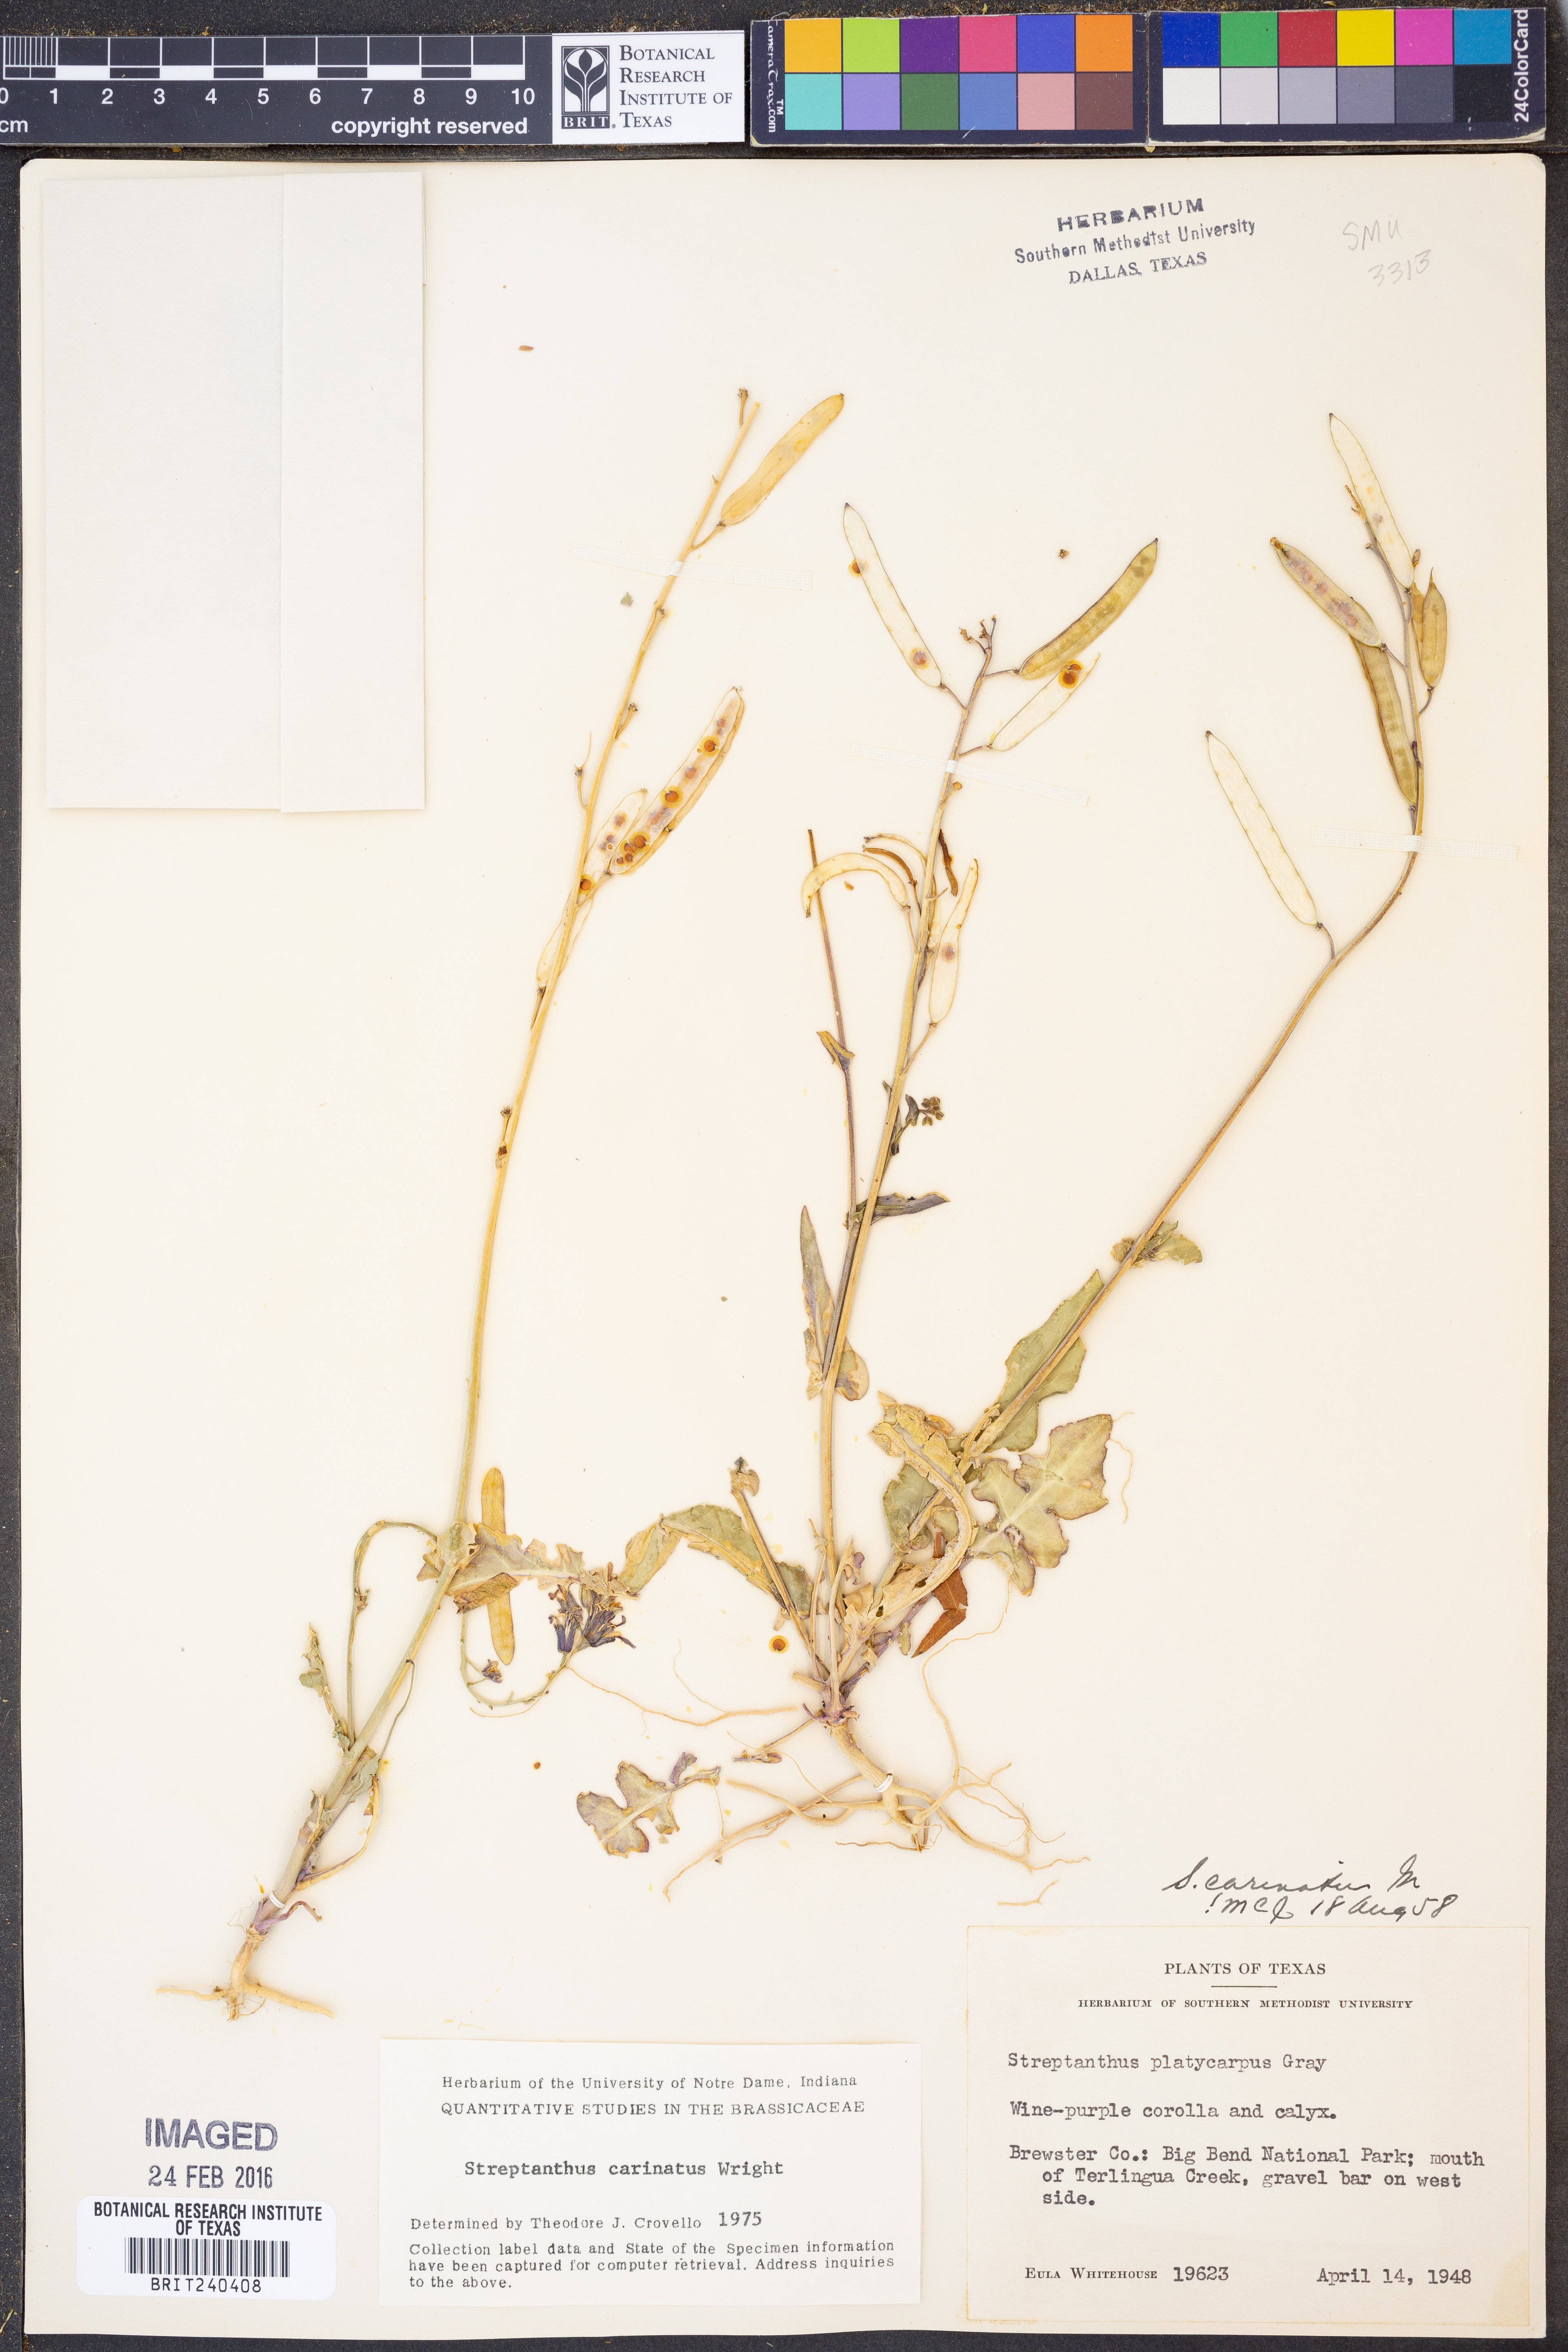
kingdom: Plantae
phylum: Tracheophyta
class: Magnoliopsida
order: Brassicales
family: Brassicaceae
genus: Streptanthus
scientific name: Streptanthus carinatus
